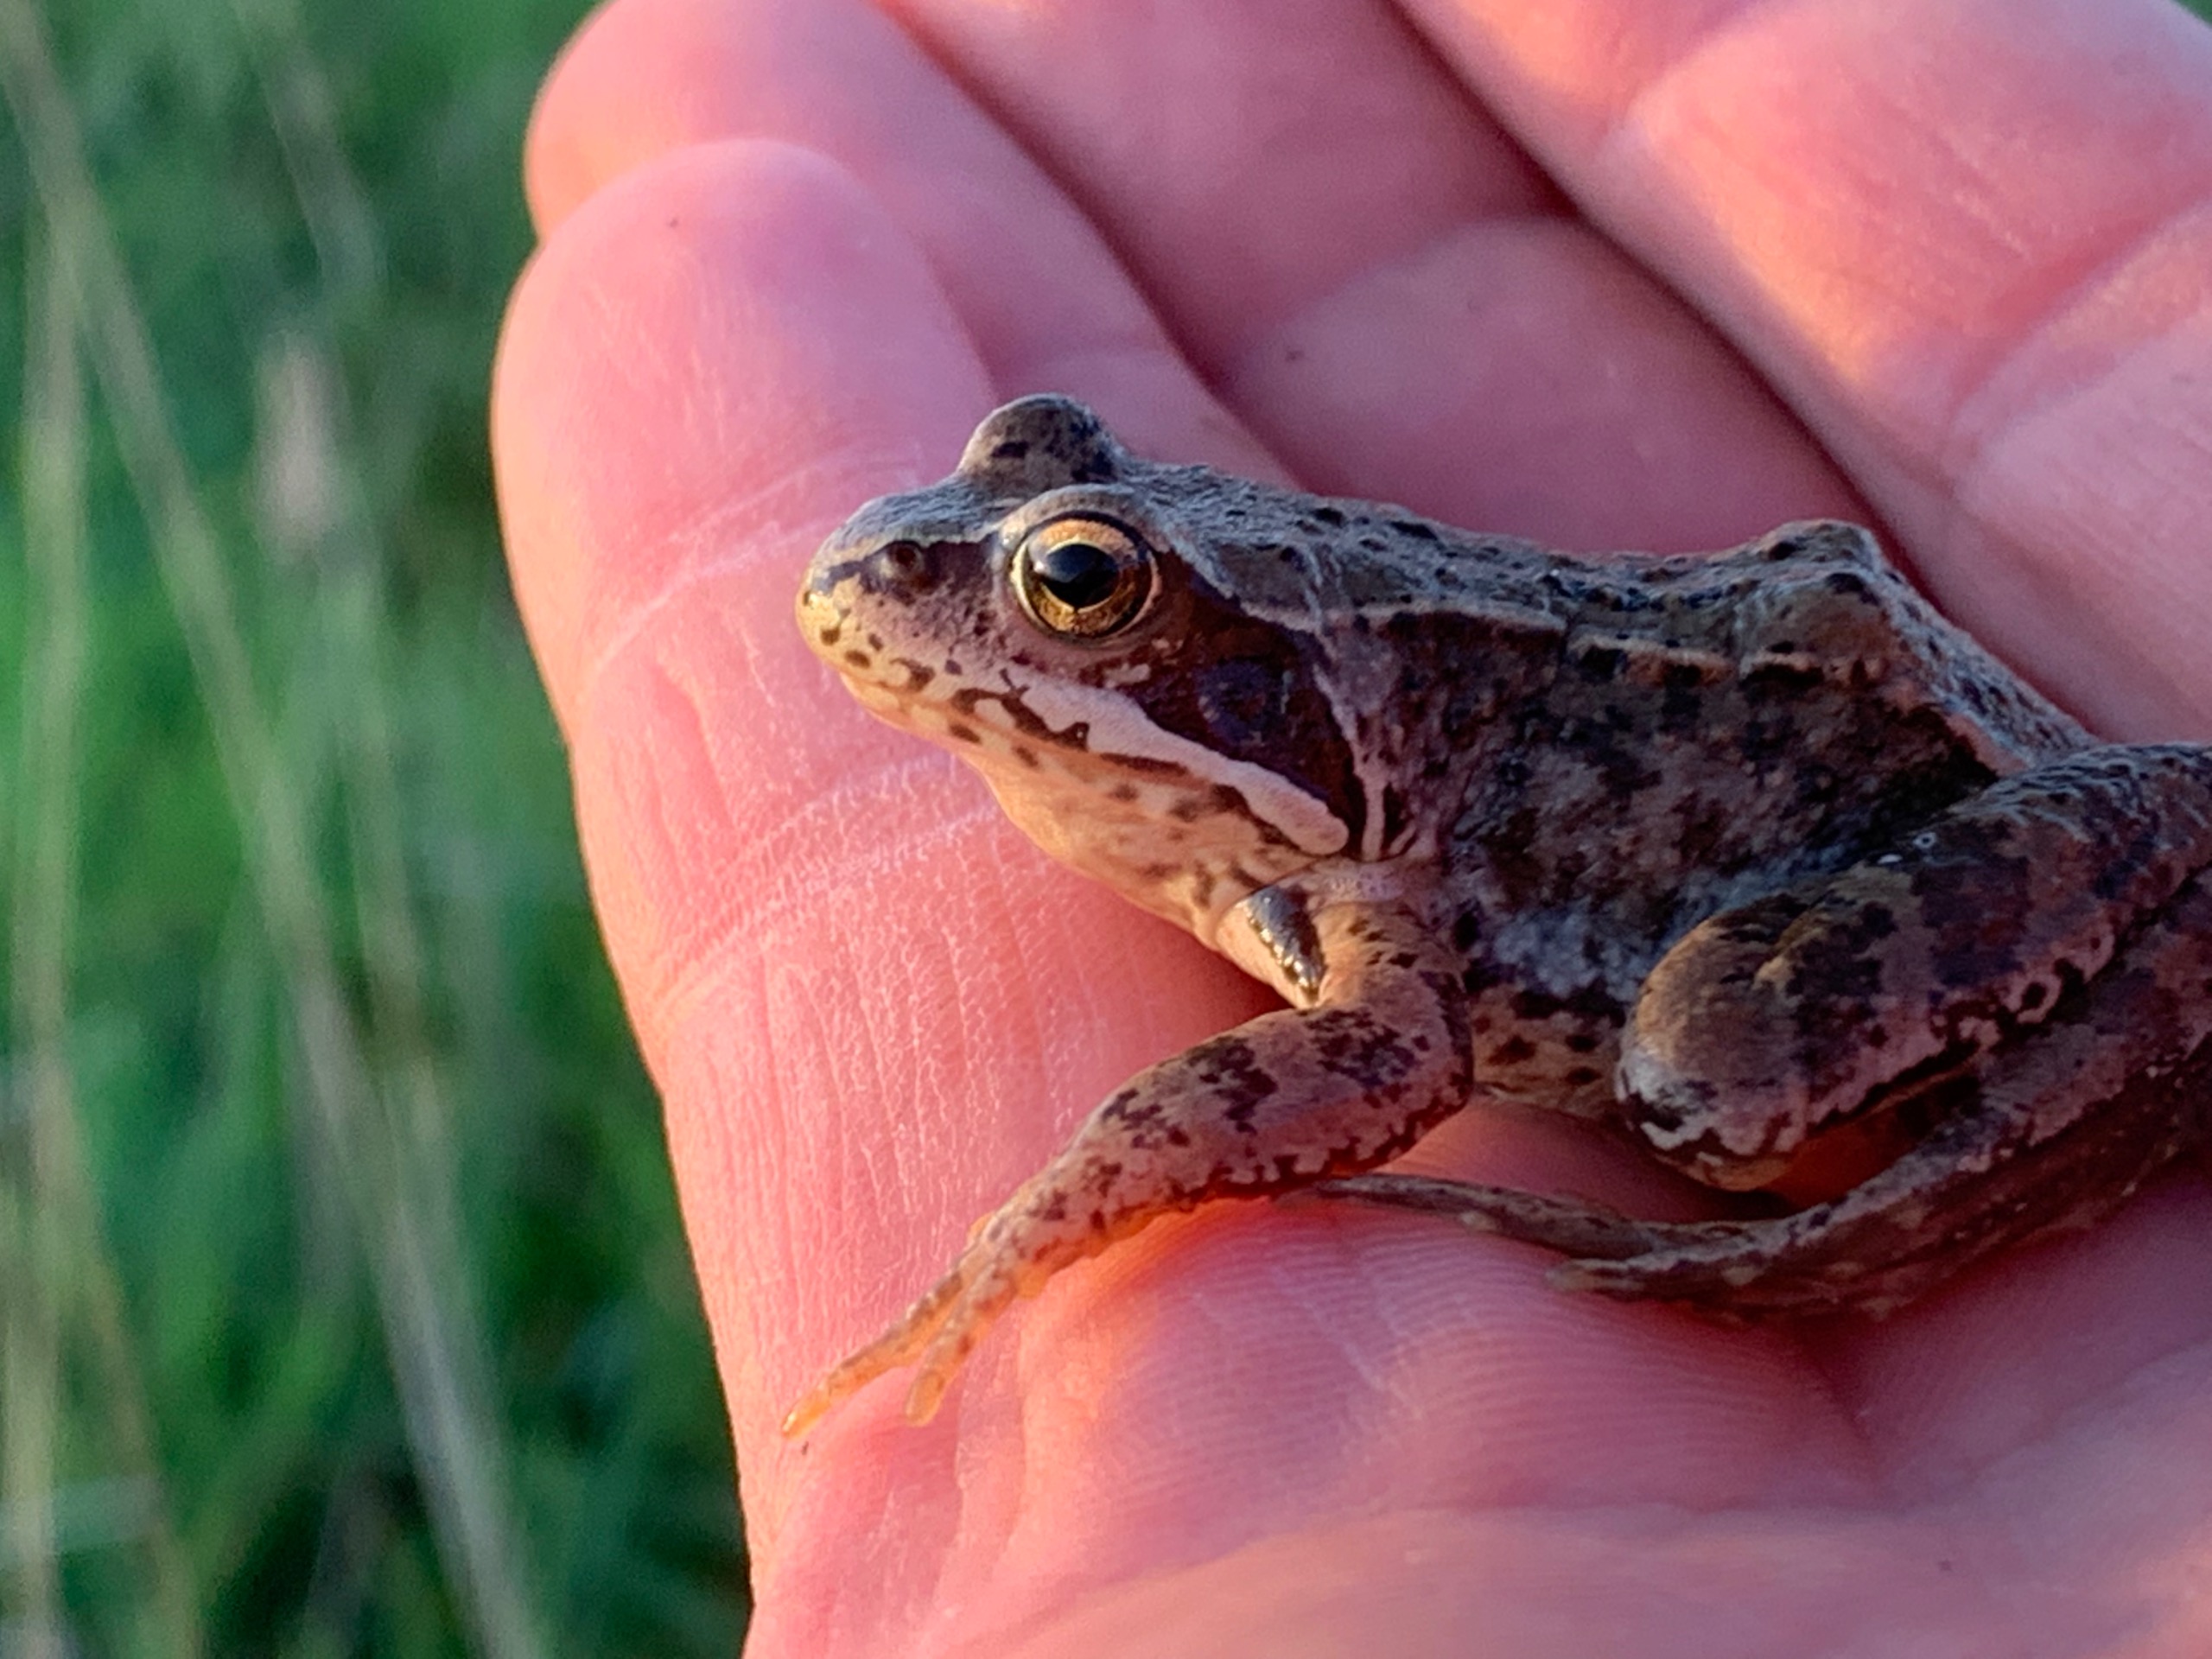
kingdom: Animalia
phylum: Chordata
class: Amphibia
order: Anura
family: Ranidae
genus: Rana
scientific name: Rana temporaria
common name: Butsnudet frø
